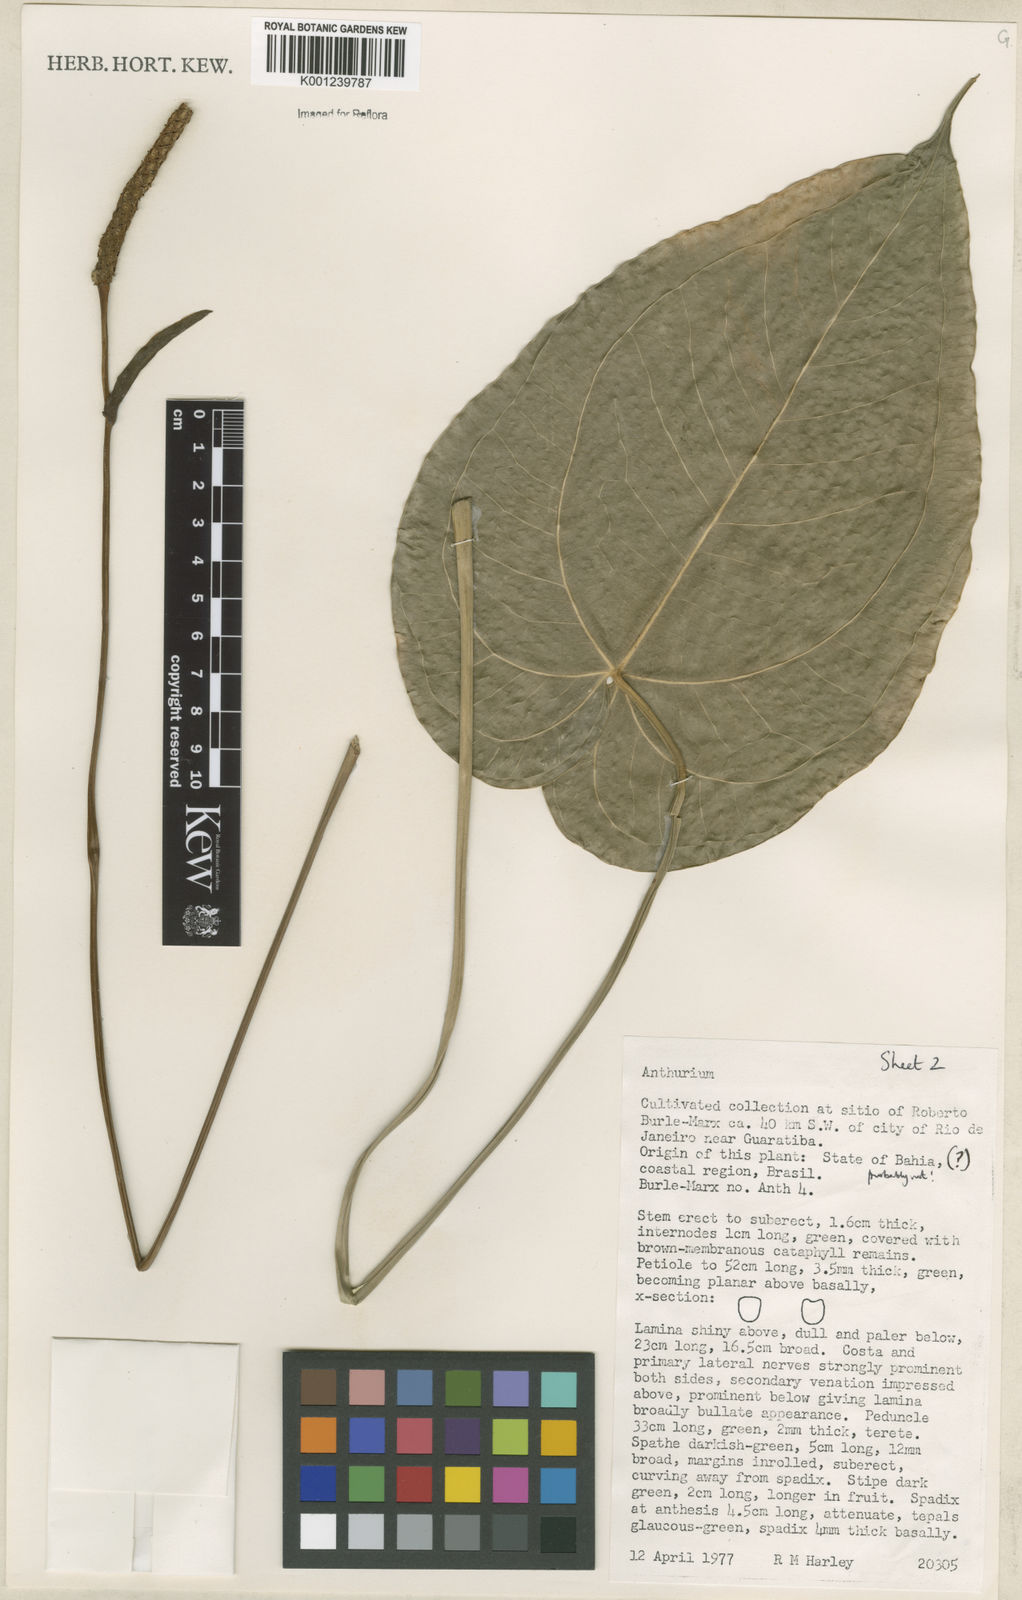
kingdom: Plantae
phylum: Tracheophyta
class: Liliopsida
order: Alismatales
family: Araceae
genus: Anthurium
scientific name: Anthurium
